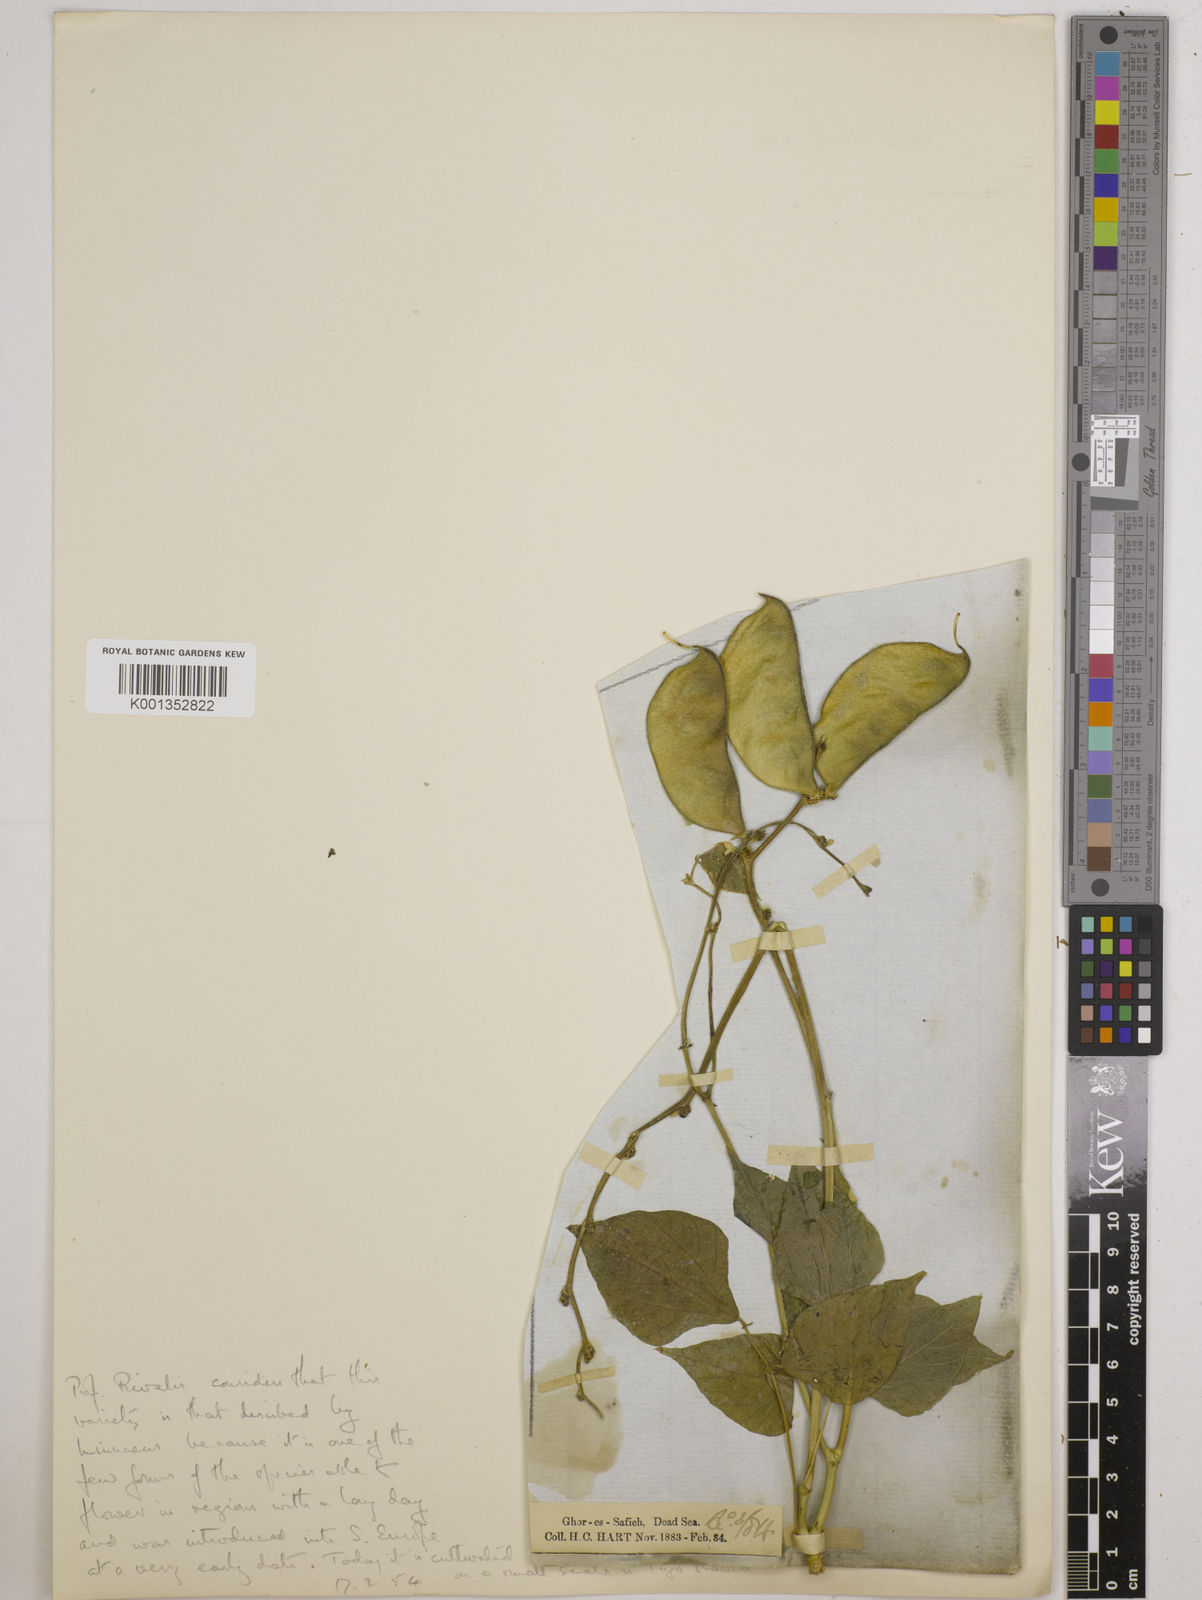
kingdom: Plantae
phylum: Tracheophyta
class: Magnoliopsida
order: Fabales
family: Fabaceae
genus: Lablab
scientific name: Lablab purpureus
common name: Lablab-bean
